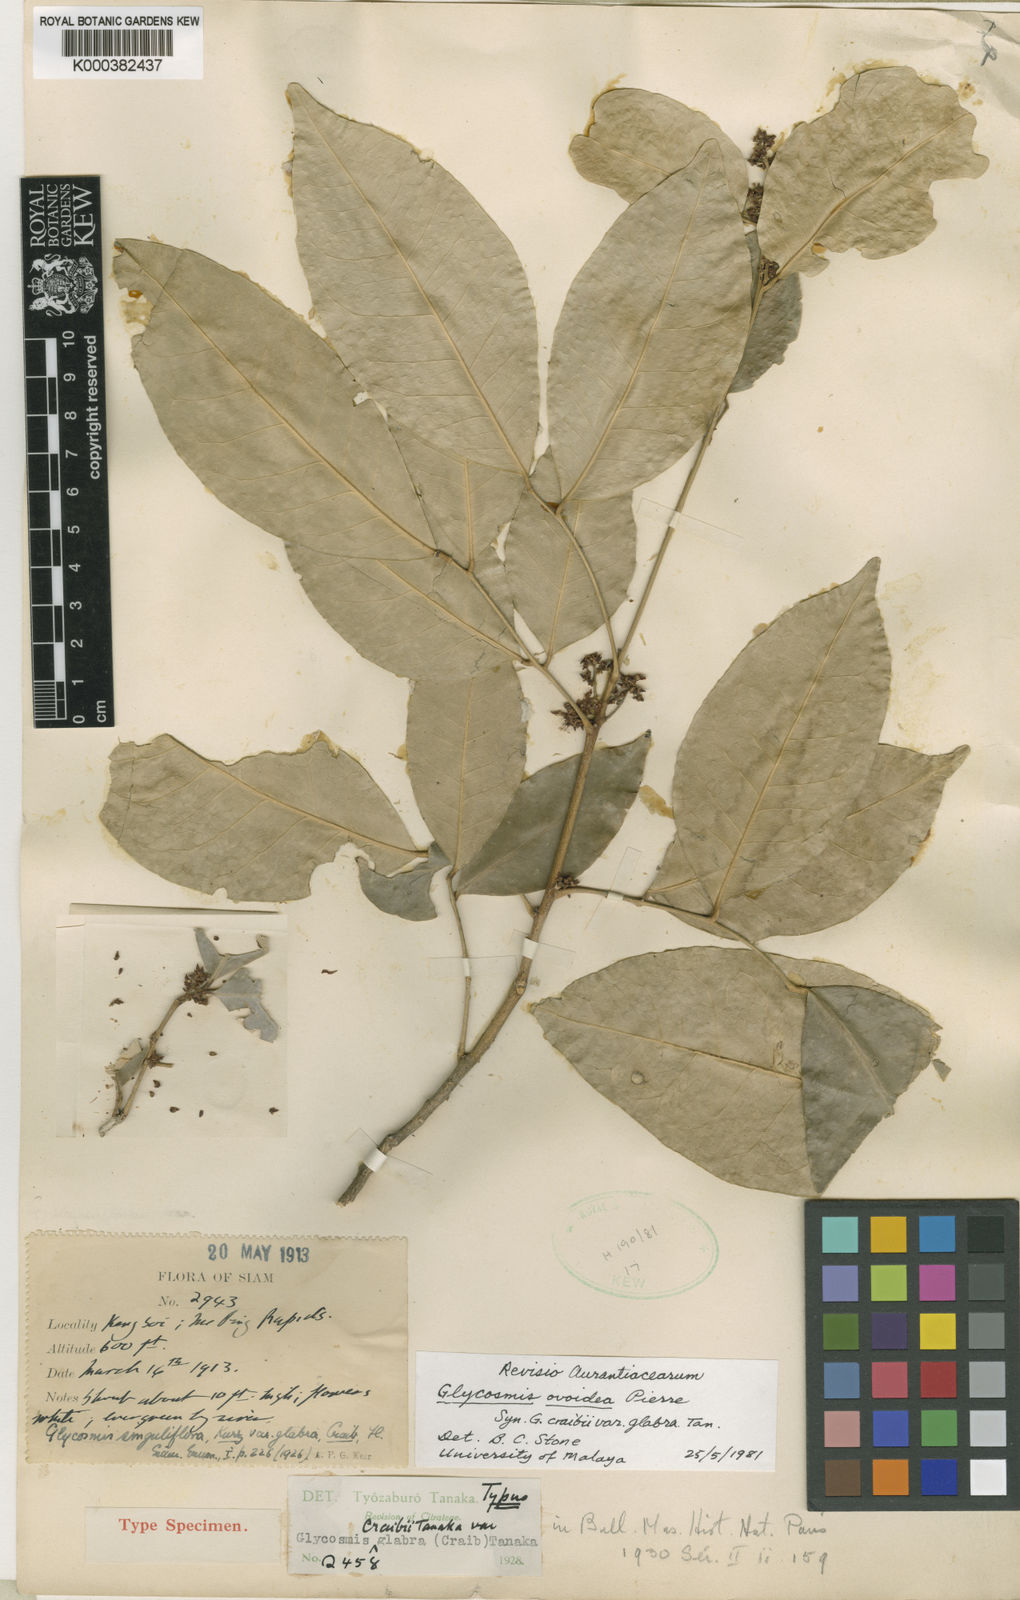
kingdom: Plantae
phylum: Tracheophyta
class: Magnoliopsida
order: Sapindales
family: Rutaceae
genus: Glycosmis
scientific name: Glycosmis ovoidea
